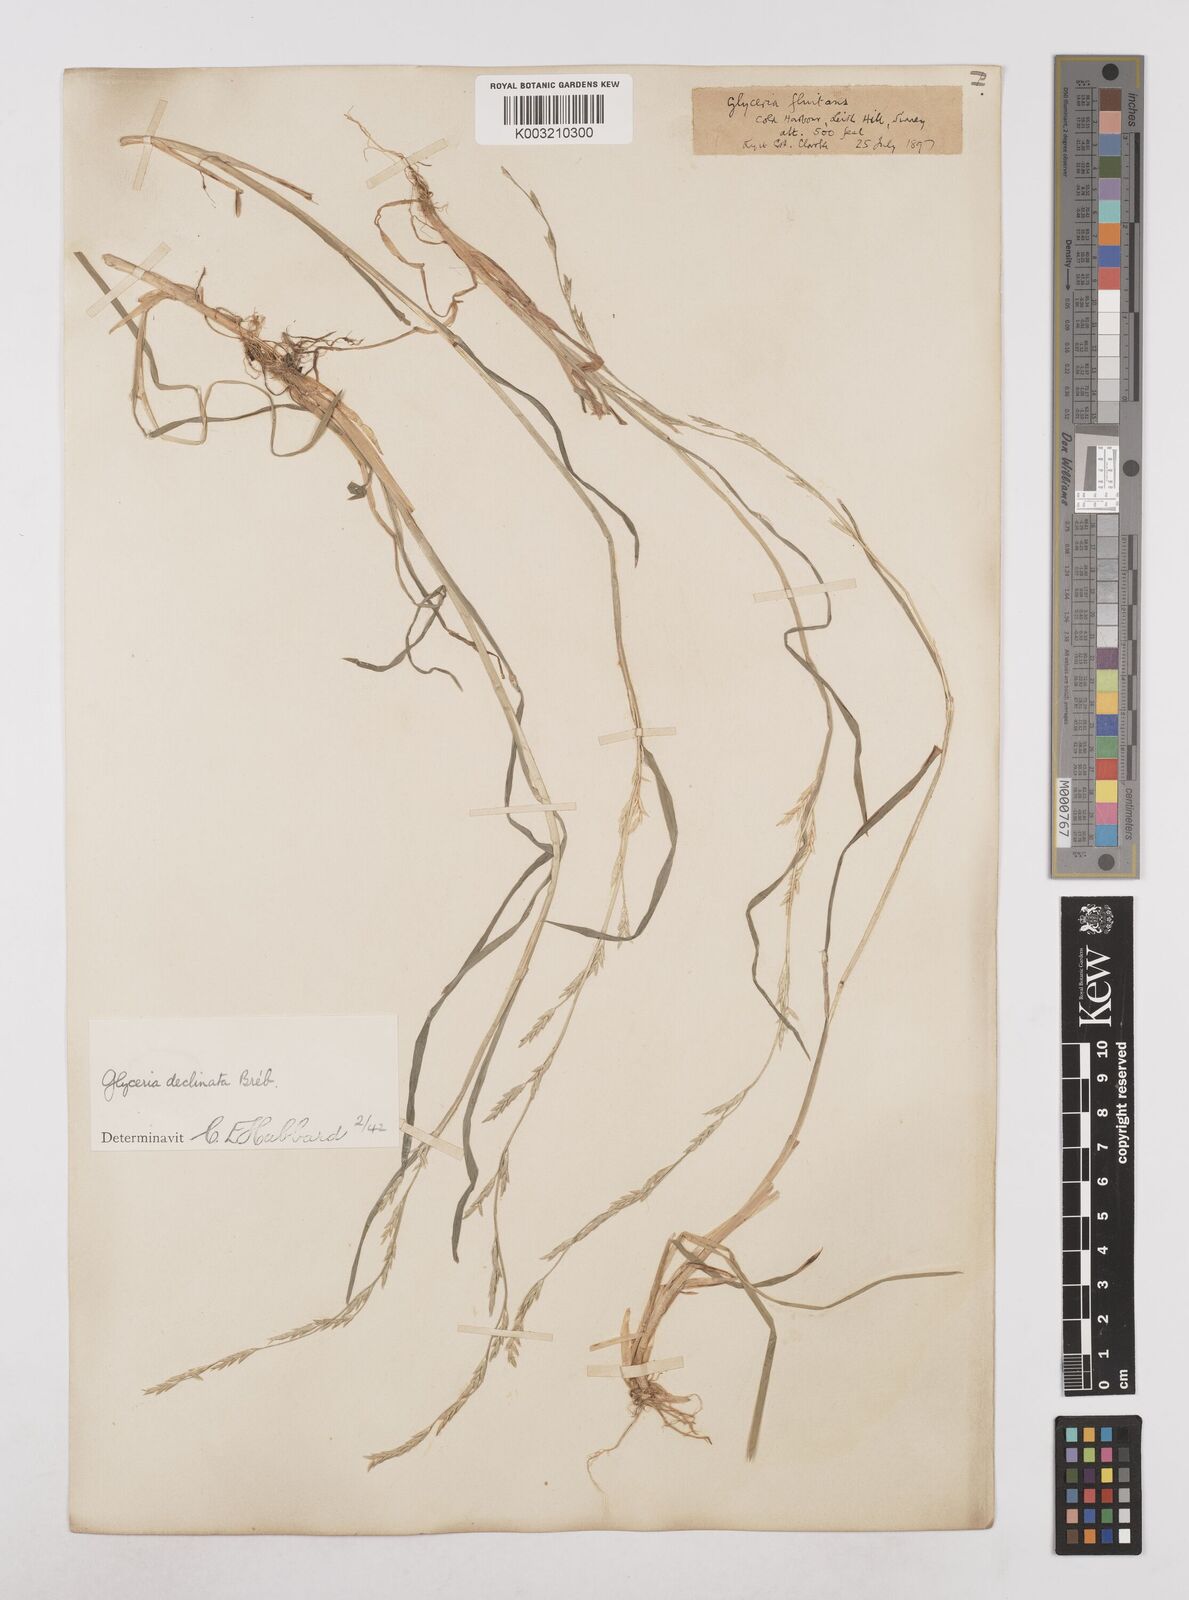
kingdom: Plantae
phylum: Tracheophyta
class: Liliopsida
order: Poales
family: Poaceae
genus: Glyceria
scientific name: Glyceria declinata
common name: Small sweet-grass
